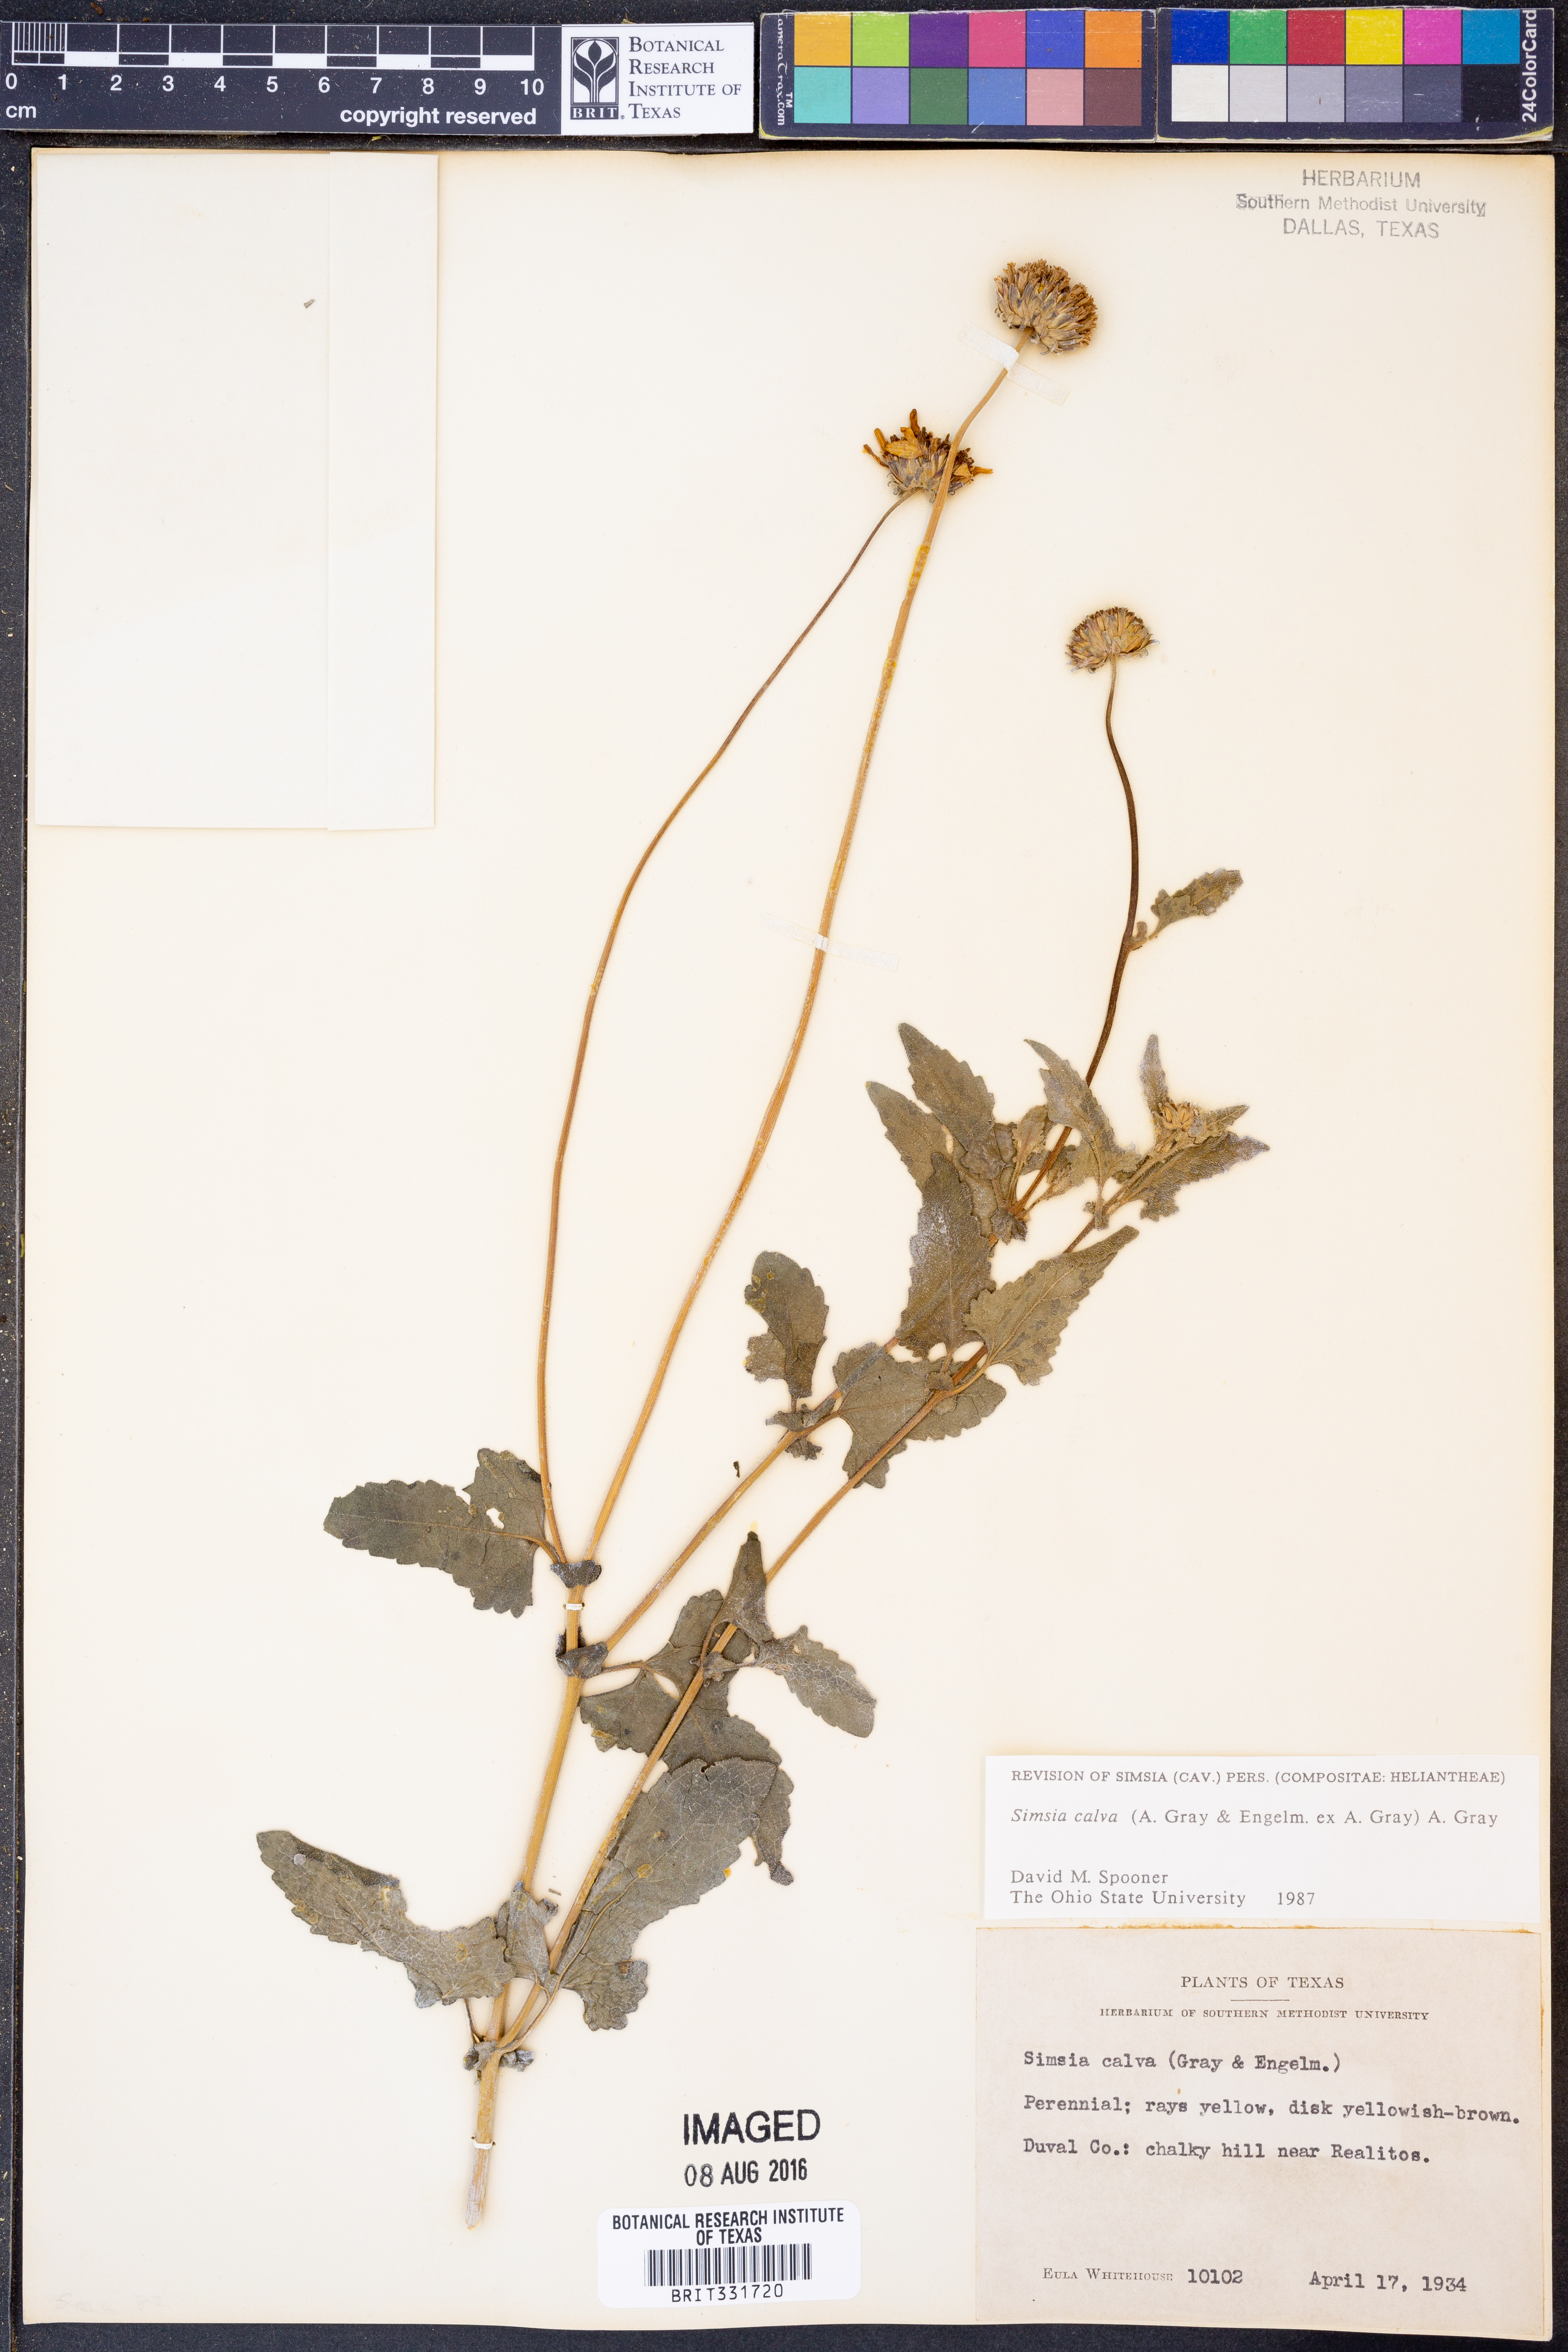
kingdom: Plantae
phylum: Tracheophyta
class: Magnoliopsida
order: Asterales
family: Asteraceae
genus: Simsia
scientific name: Simsia calva
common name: Awnless bush-sunflower
